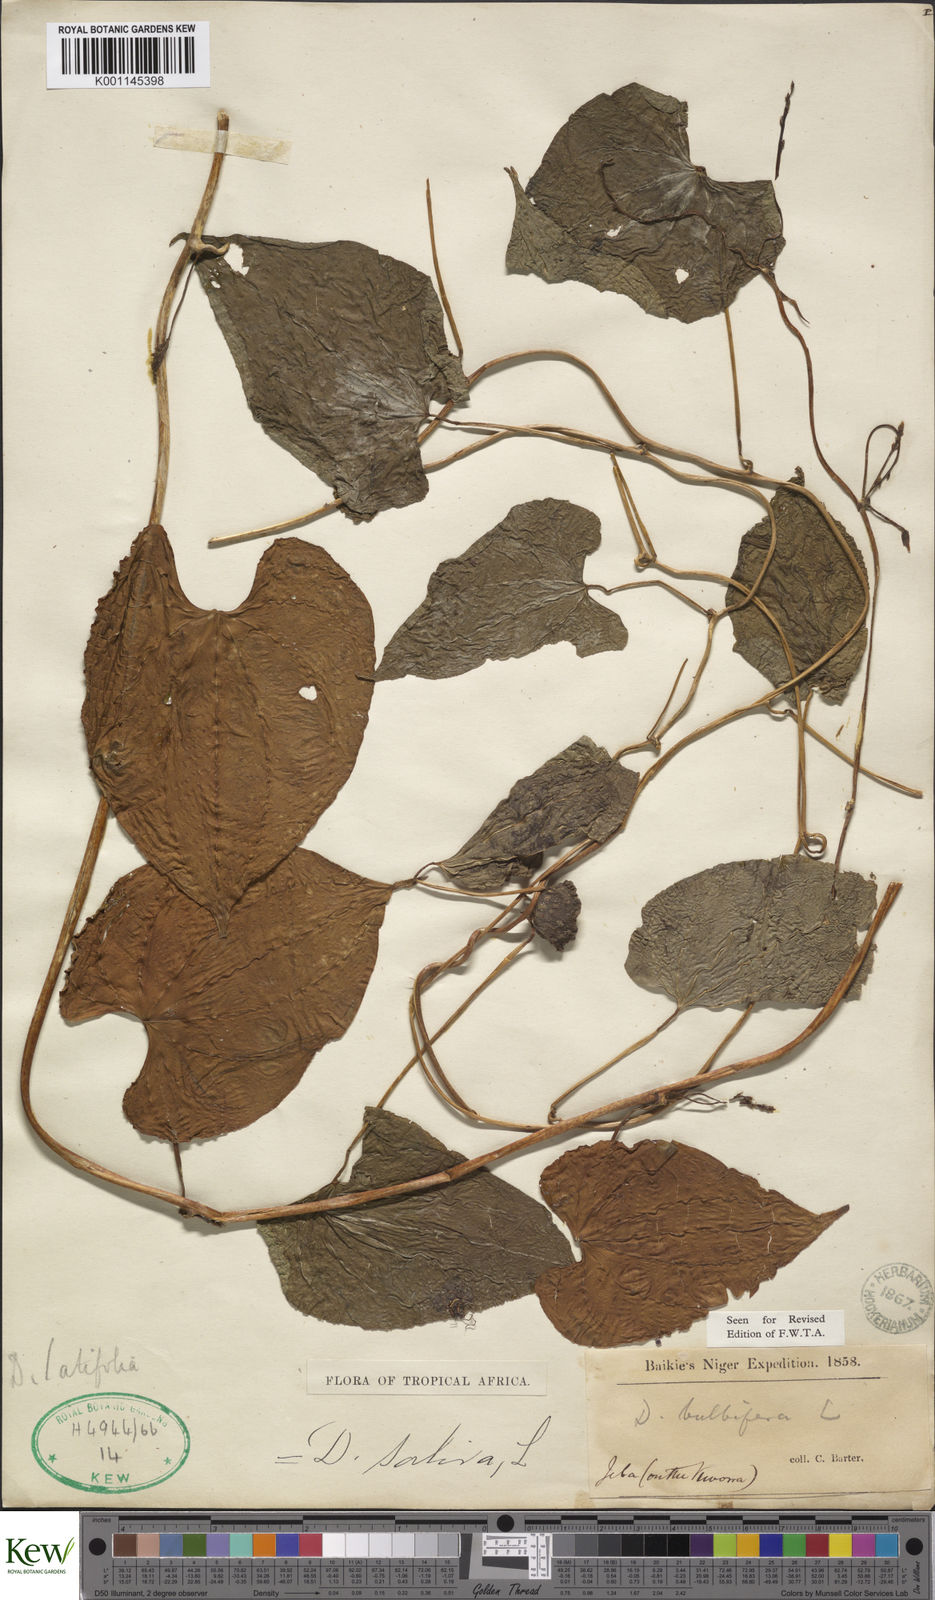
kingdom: Plantae
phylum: Tracheophyta
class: Liliopsida
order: Dioscoreales
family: Dioscoreaceae
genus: Dioscorea
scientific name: Dioscorea bulbifera
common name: Air yam
